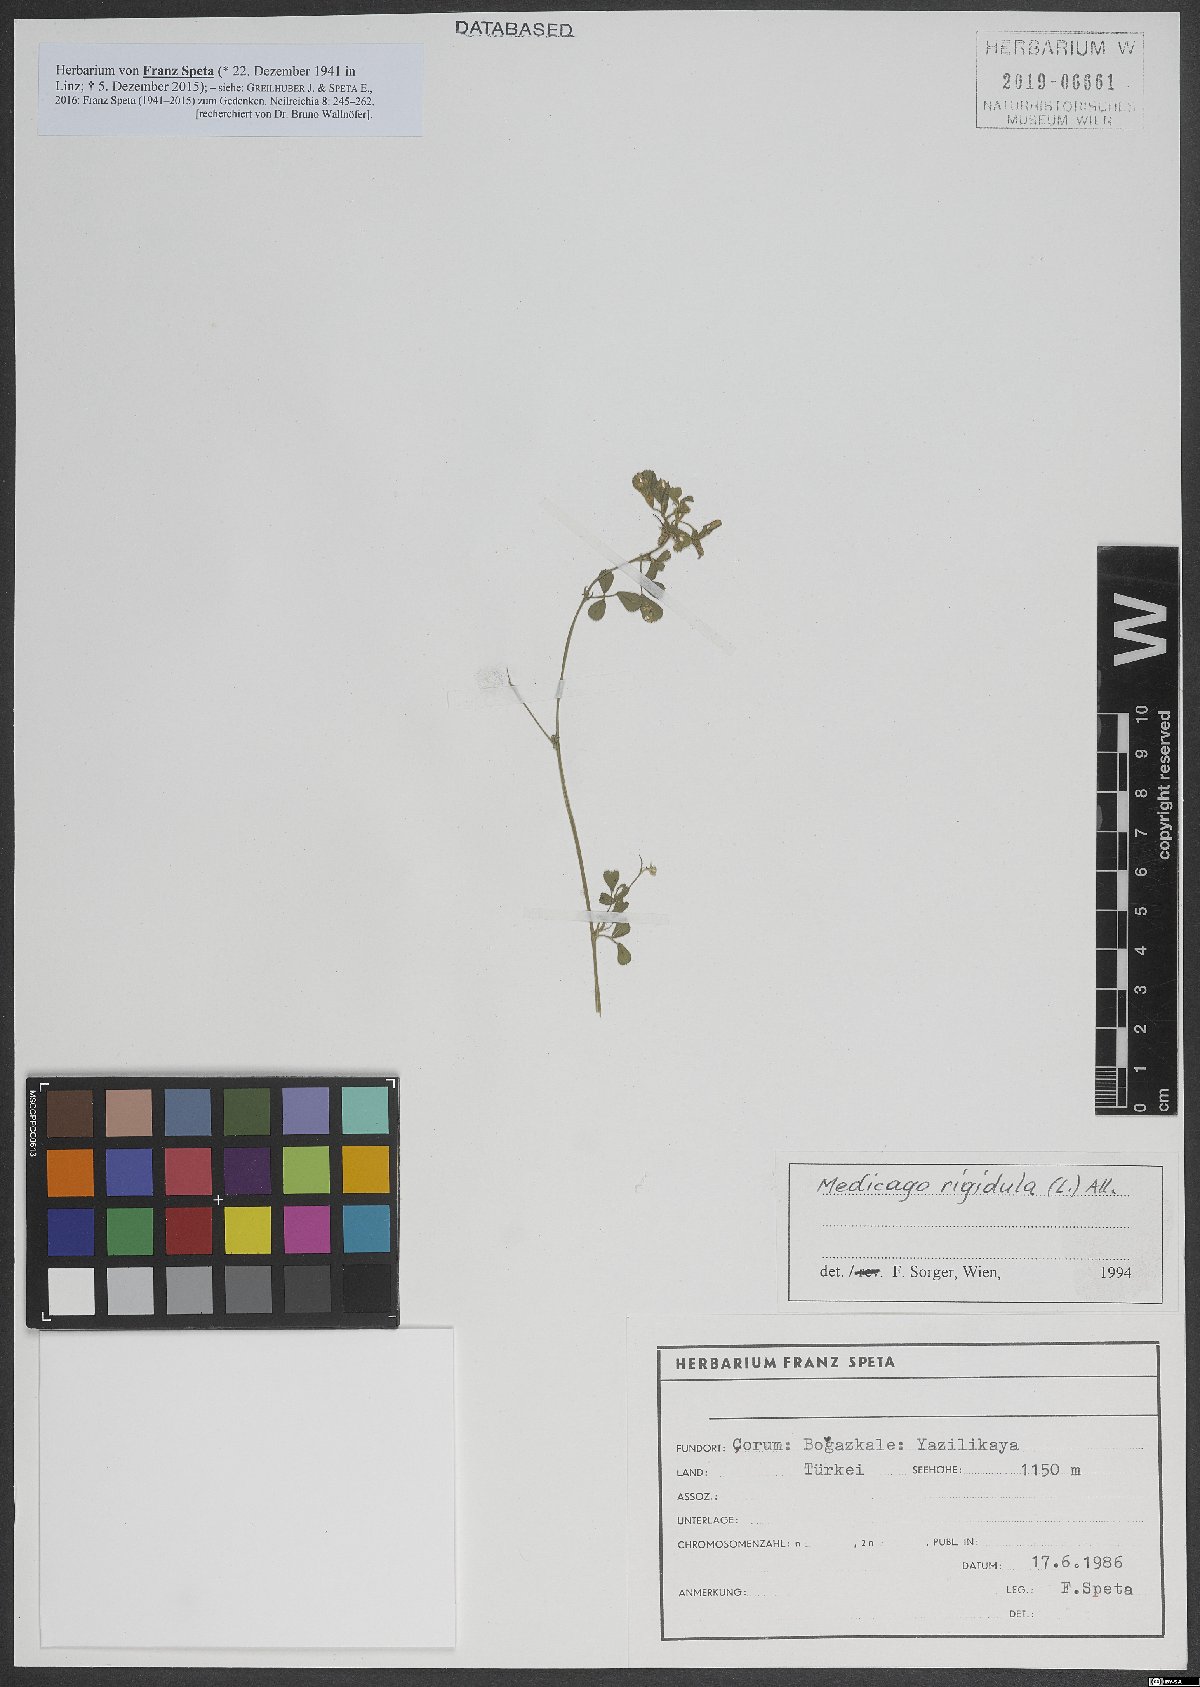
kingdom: Plantae
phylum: Tracheophyta
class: Magnoliopsida
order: Fabales
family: Fabaceae
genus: Medicago
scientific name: Medicago rigidula
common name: Tifton medic
